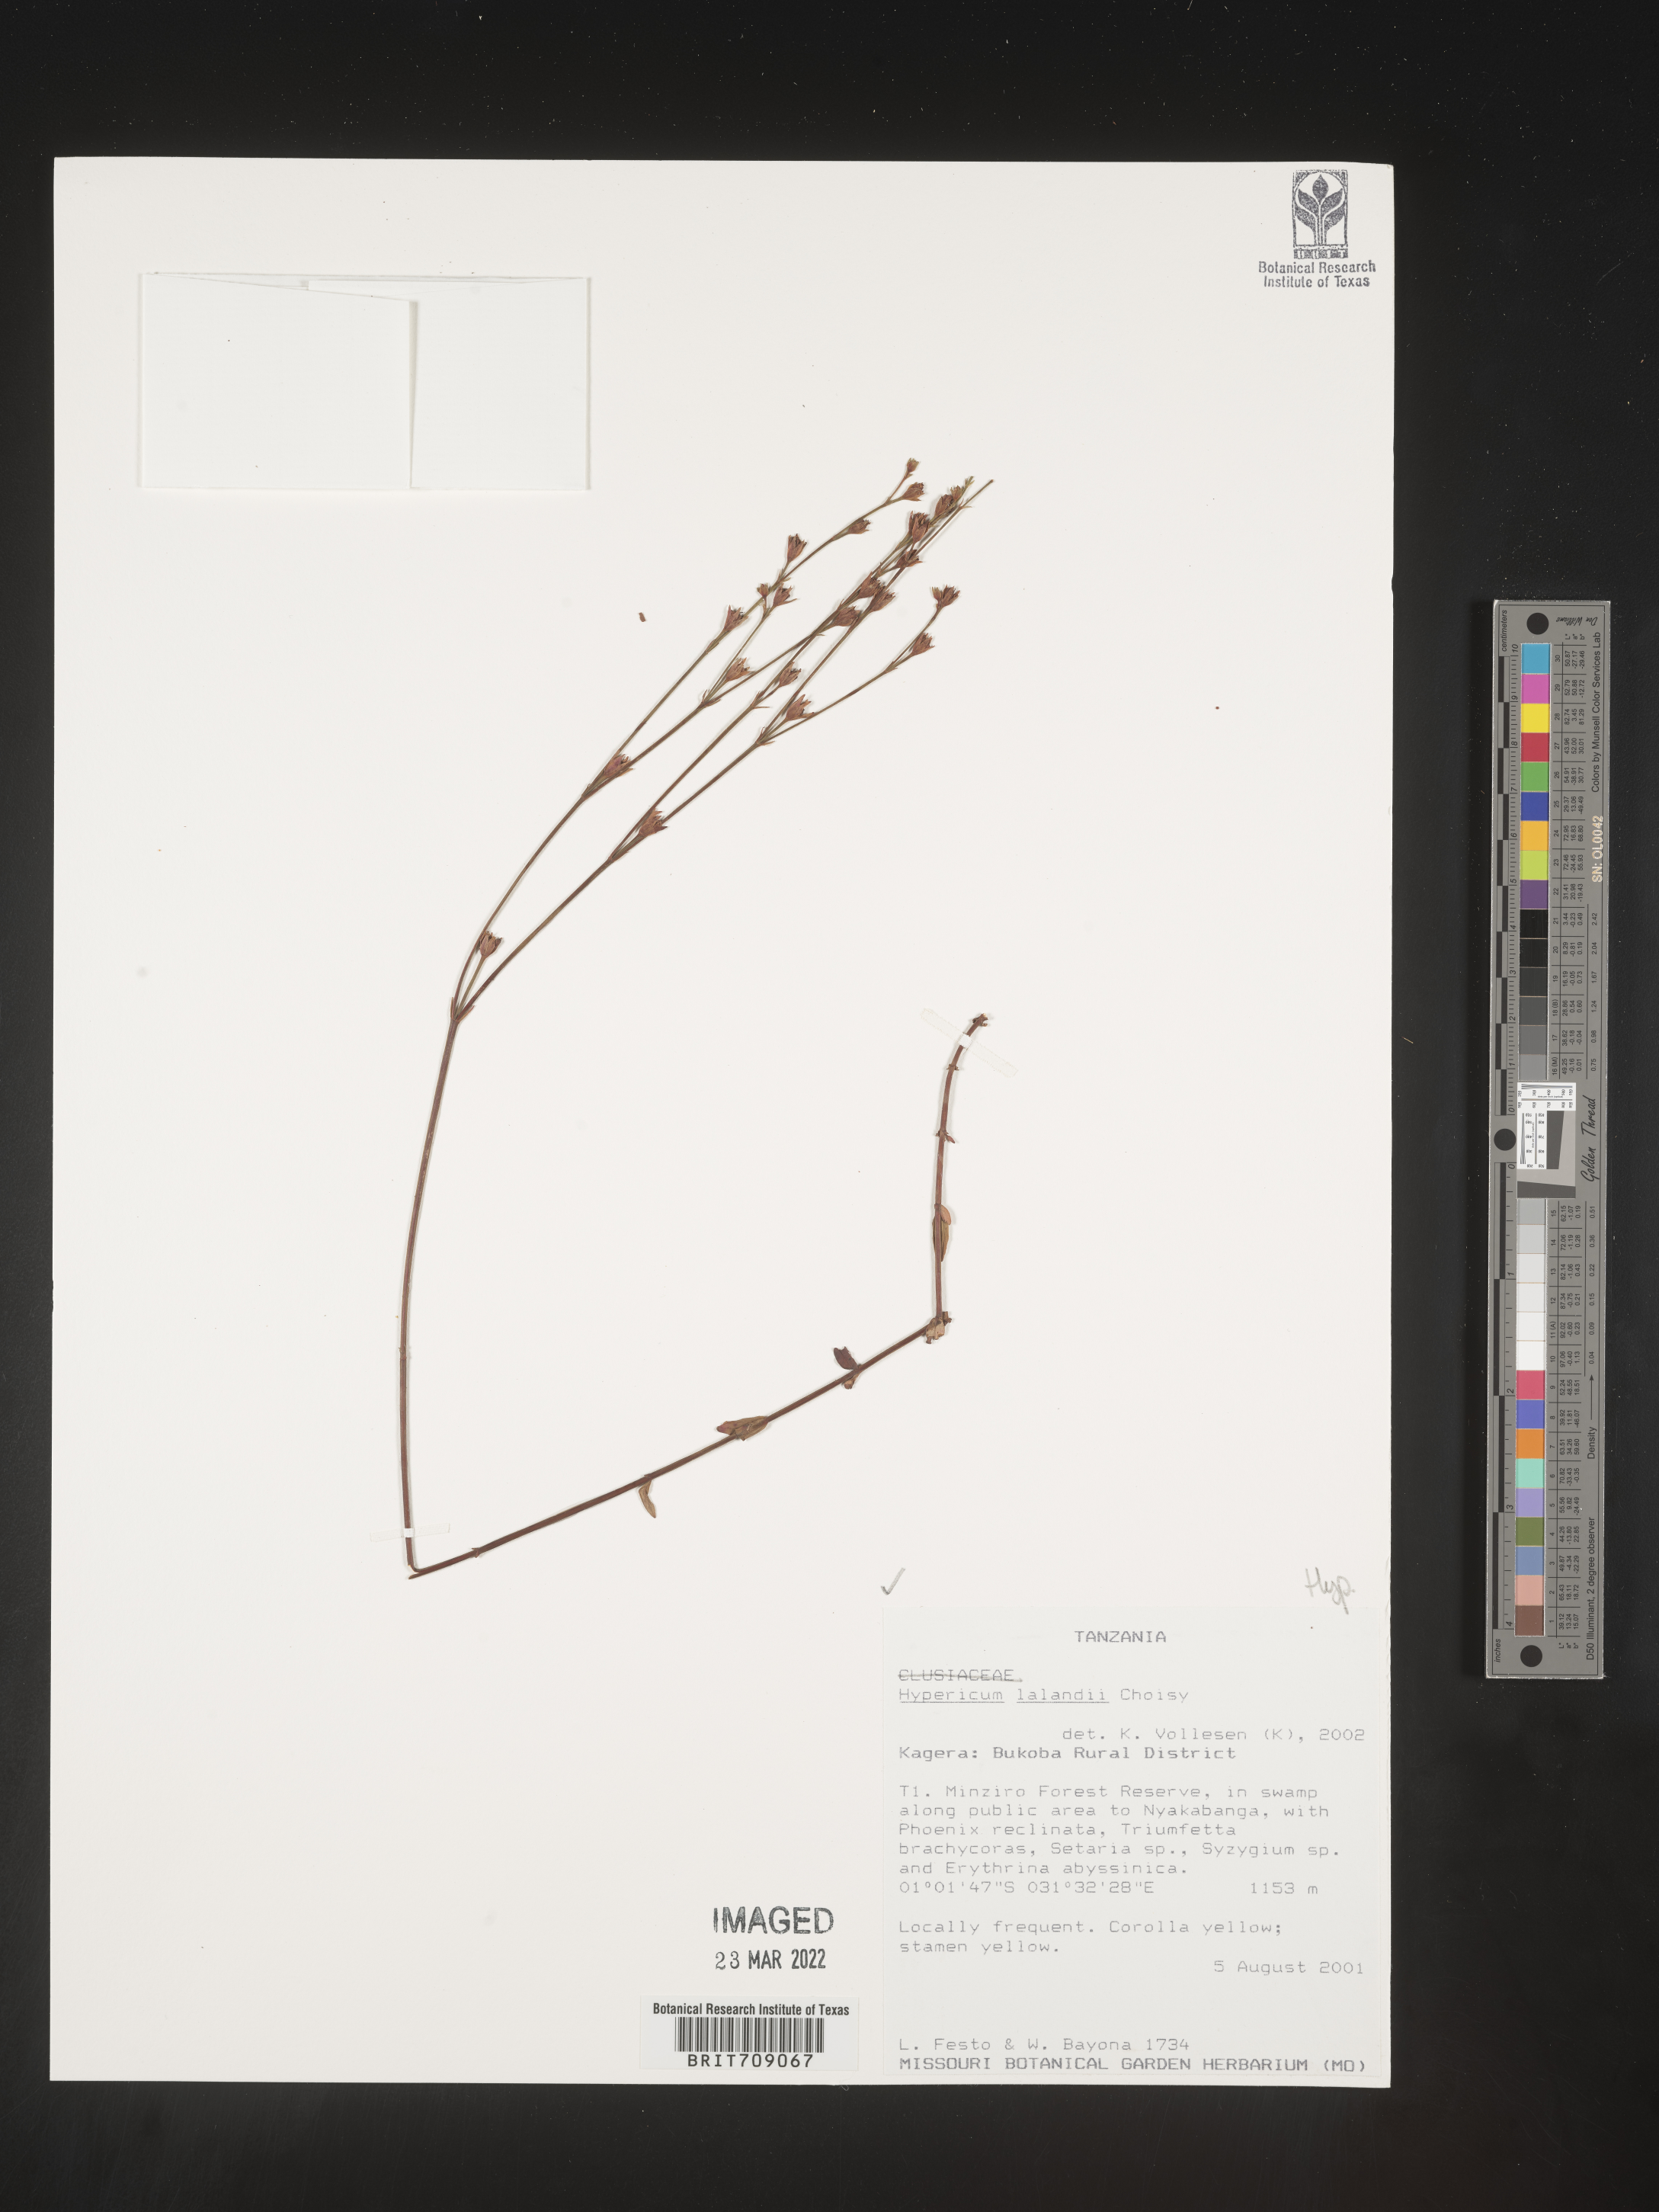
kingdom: Plantae
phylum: Tracheophyta
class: Magnoliopsida
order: Malpighiales
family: Hypericaceae
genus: Hypericum
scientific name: Hypericum
